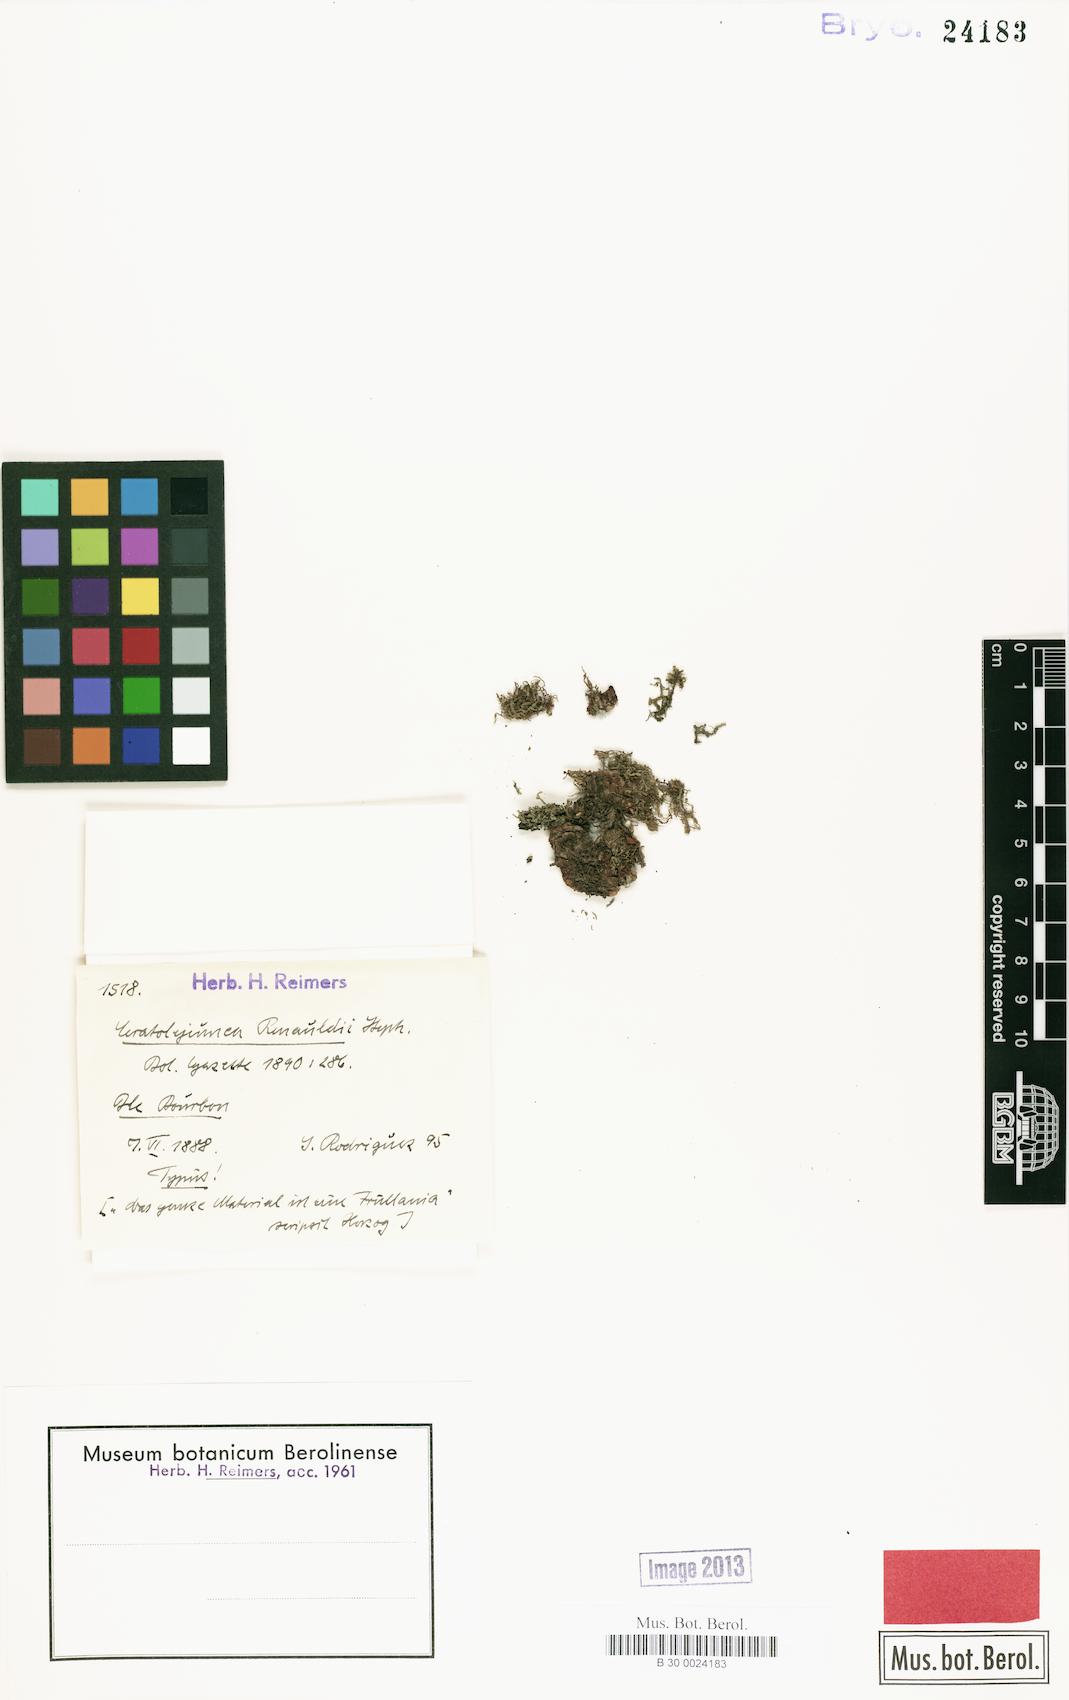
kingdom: Plantae
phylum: Marchantiophyta
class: Jungermanniopsida
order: Porellales
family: Lejeuneaceae
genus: Lejeunea
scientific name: Lejeunea alata
